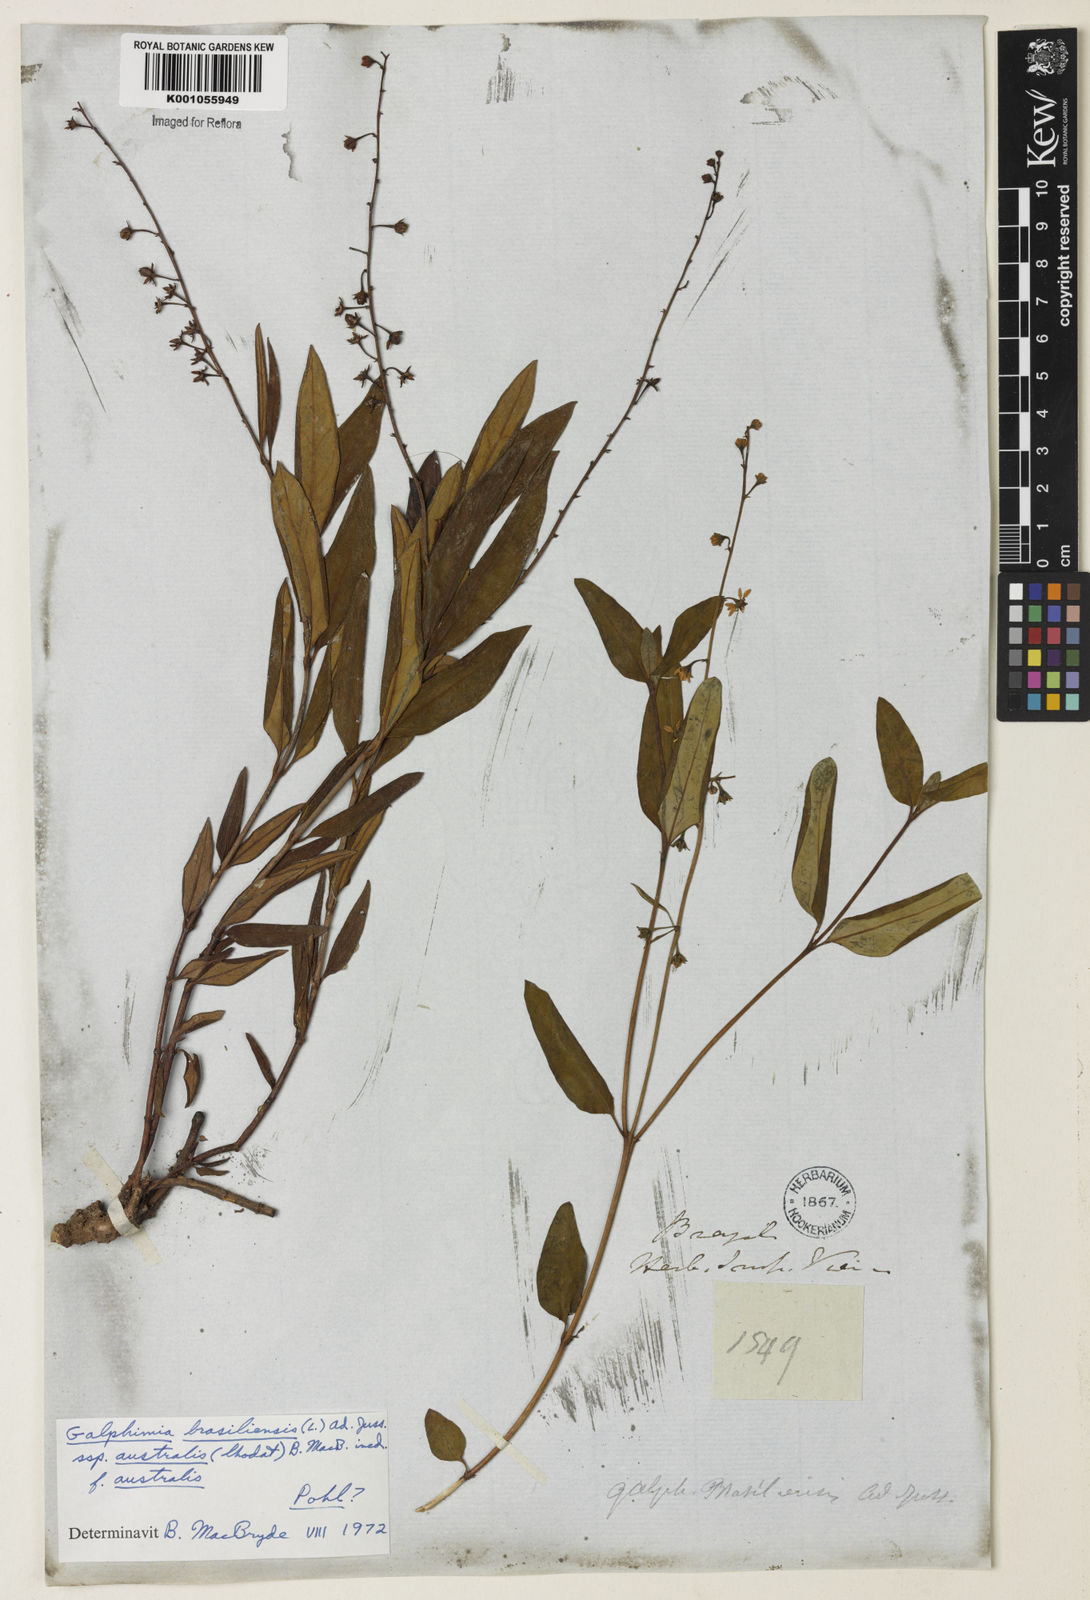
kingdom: Plantae
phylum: Tracheophyta
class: Magnoliopsida
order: Malpighiales
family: Malpighiaceae
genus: Galphimia
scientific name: Galphimia brasiliensis
